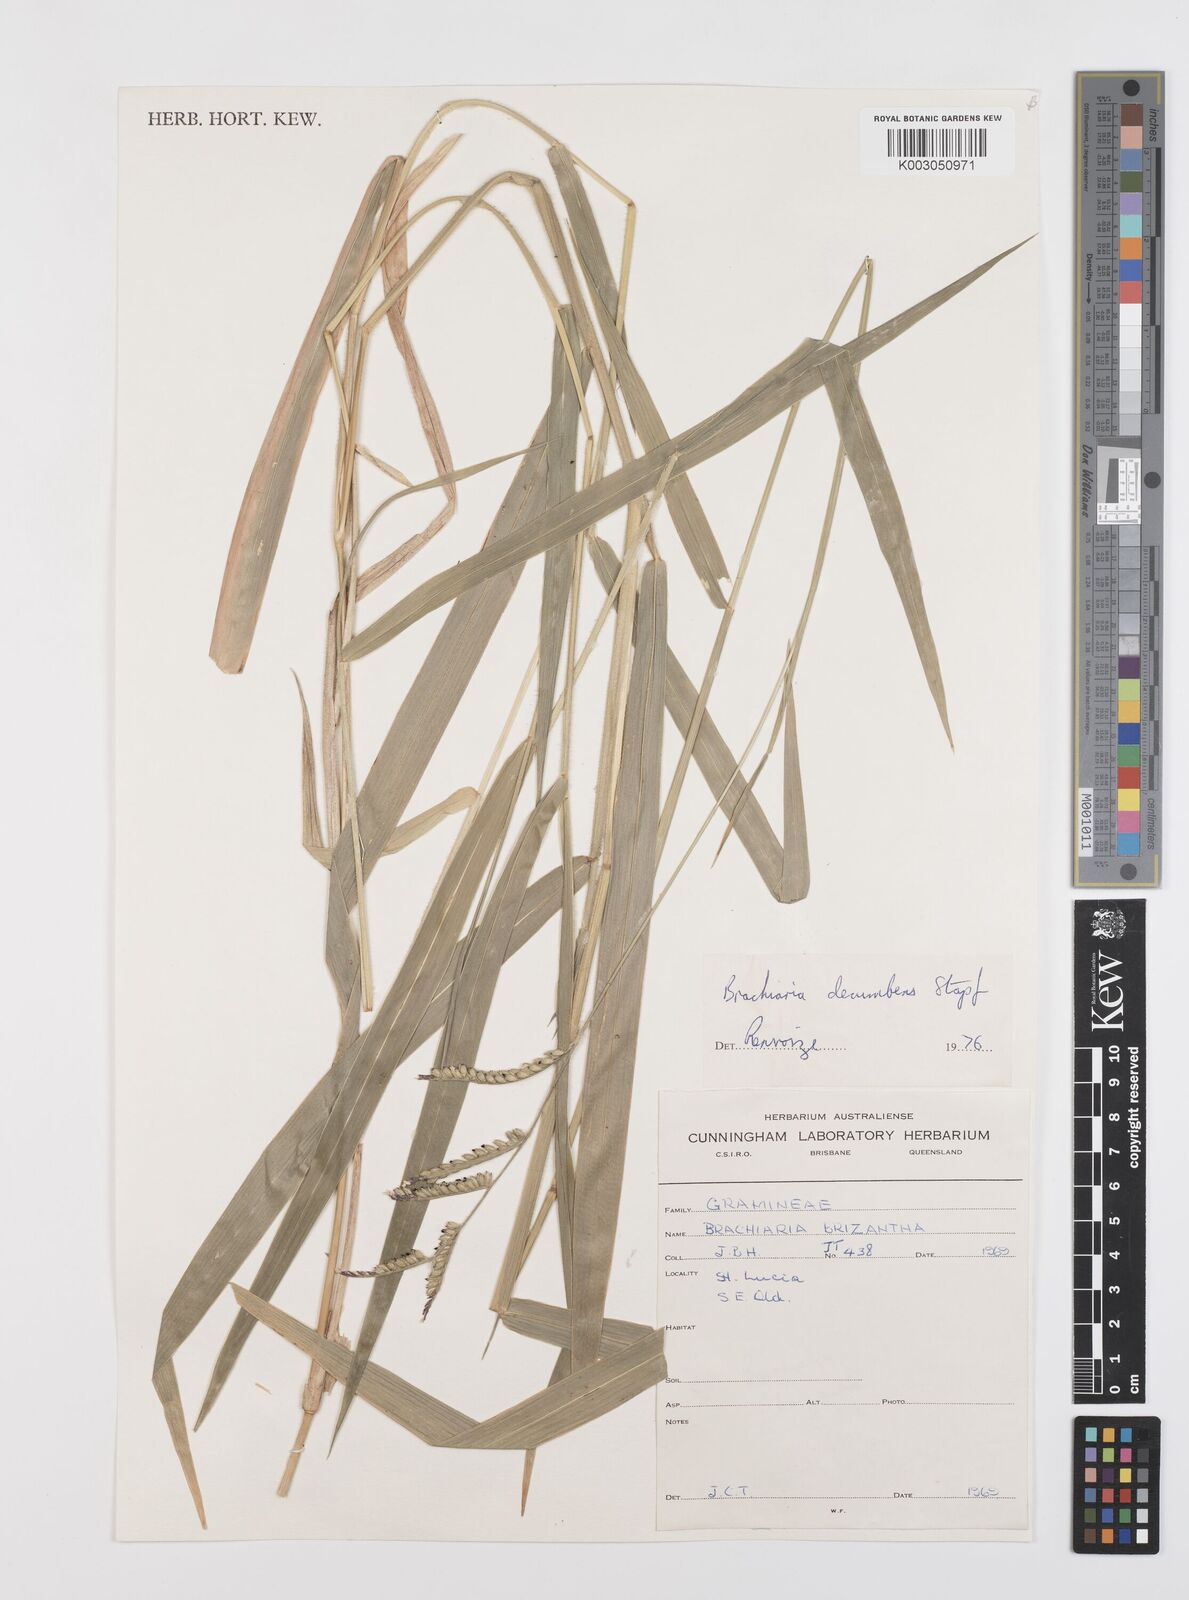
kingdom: Plantae
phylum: Tracheophyta
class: Liliopsida
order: Poales
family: Poaceae
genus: Urochloa
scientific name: Urochloa eminii
